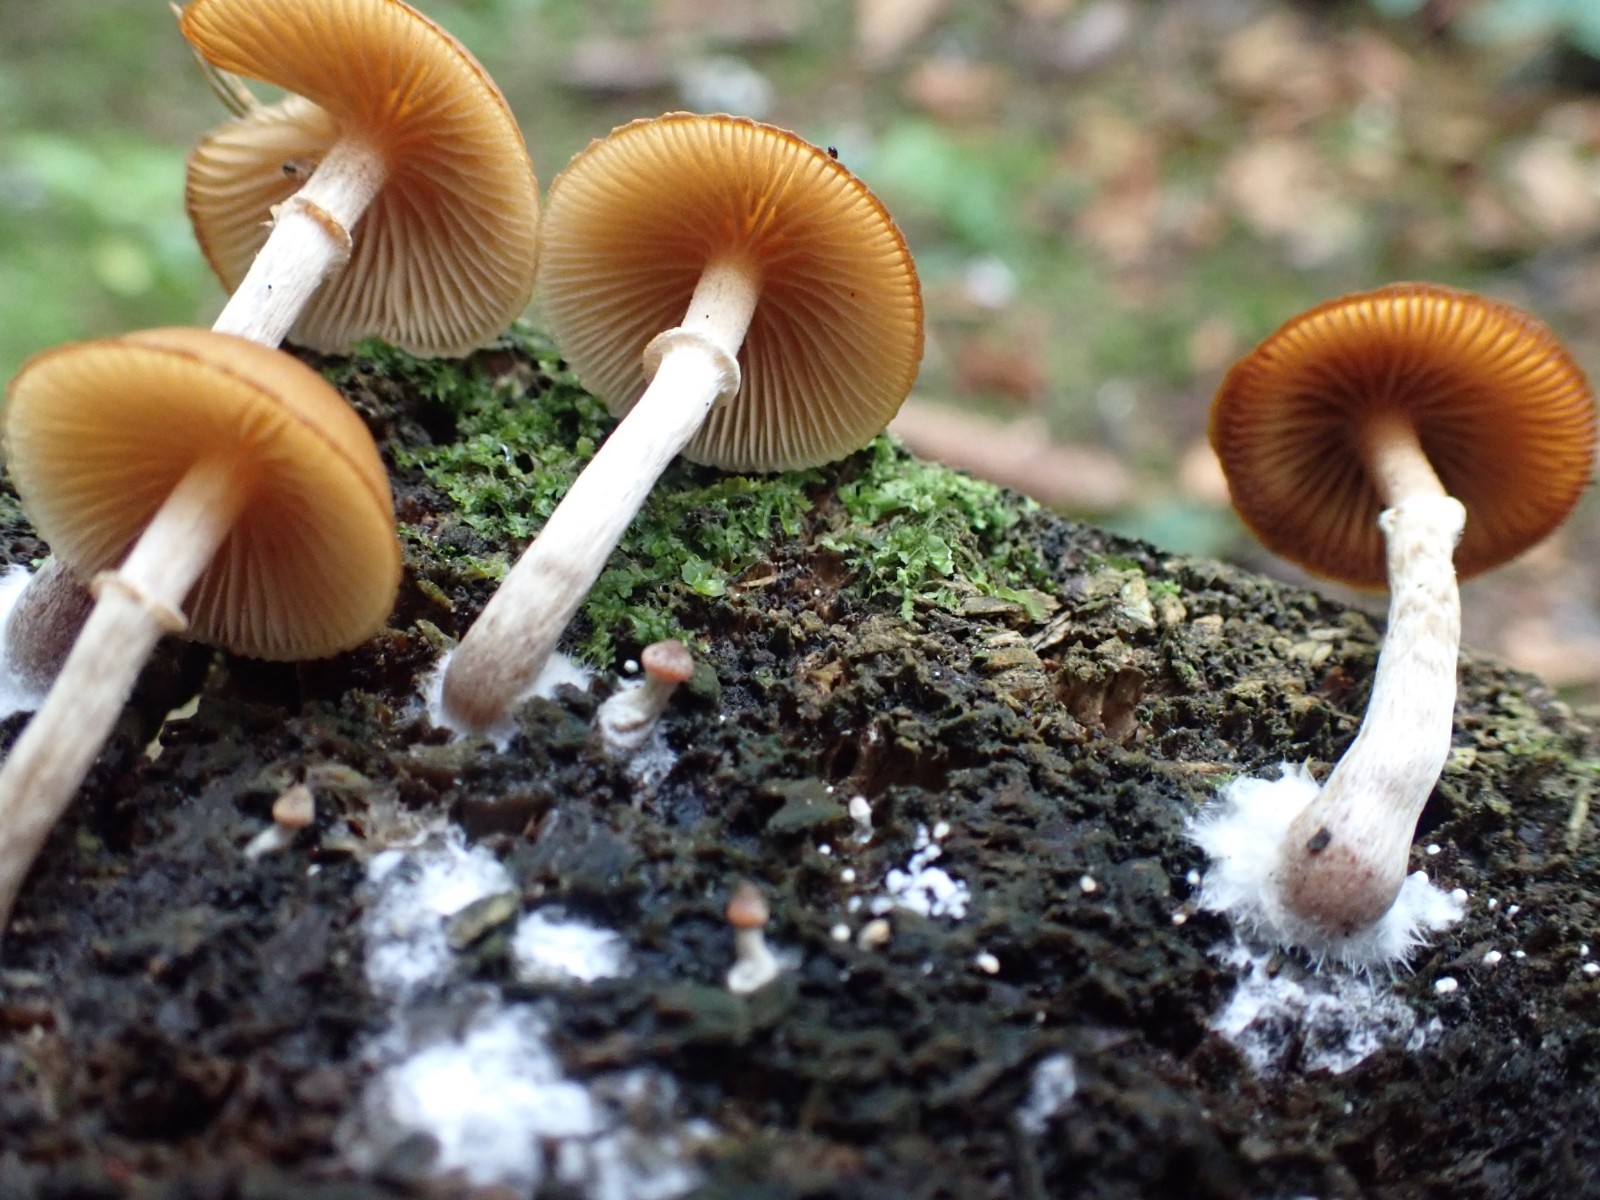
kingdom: Fungi
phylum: Basidiomycota
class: Agaricomycetes
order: Agaricales
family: Hymenogastraceae
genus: Galerina
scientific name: Galerina marginata
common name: randbæltet hjelmhat
